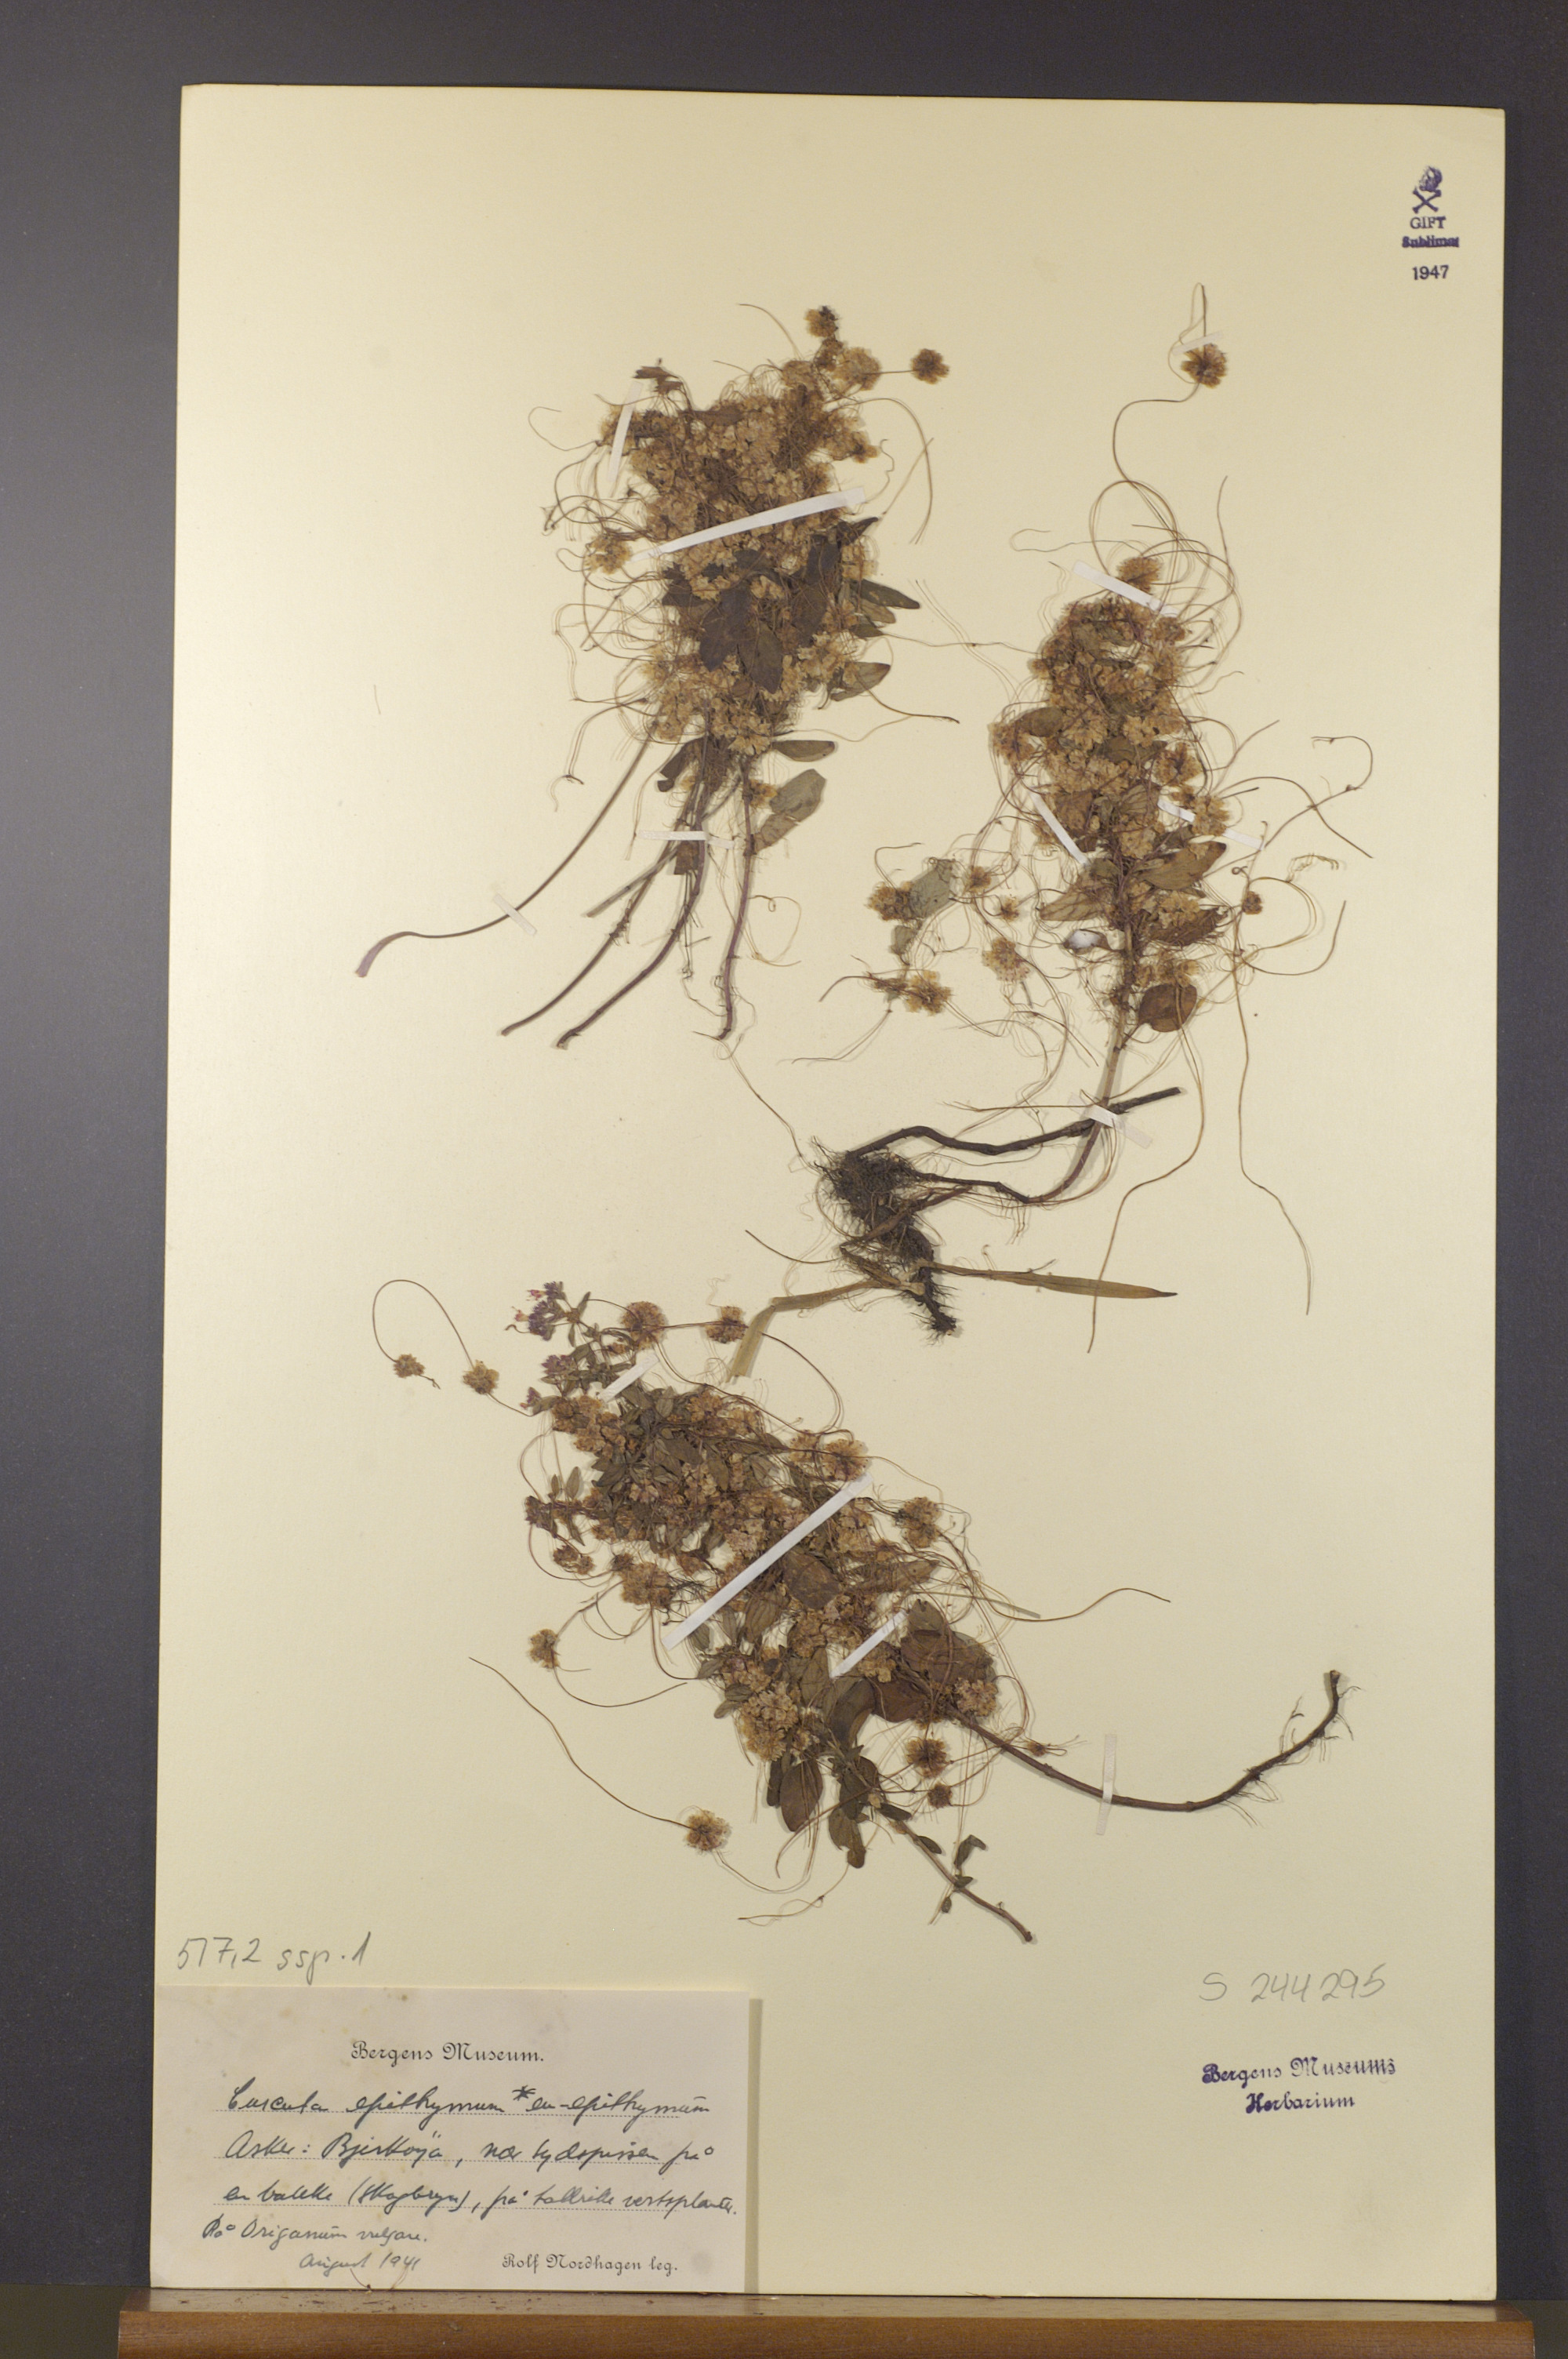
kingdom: Plantae
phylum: Tracheophyta
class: Magnoliopsida
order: Solanales
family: Convolvulaceae
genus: Cuscuta
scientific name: Cuscuta epithymum
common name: Clover dodder
